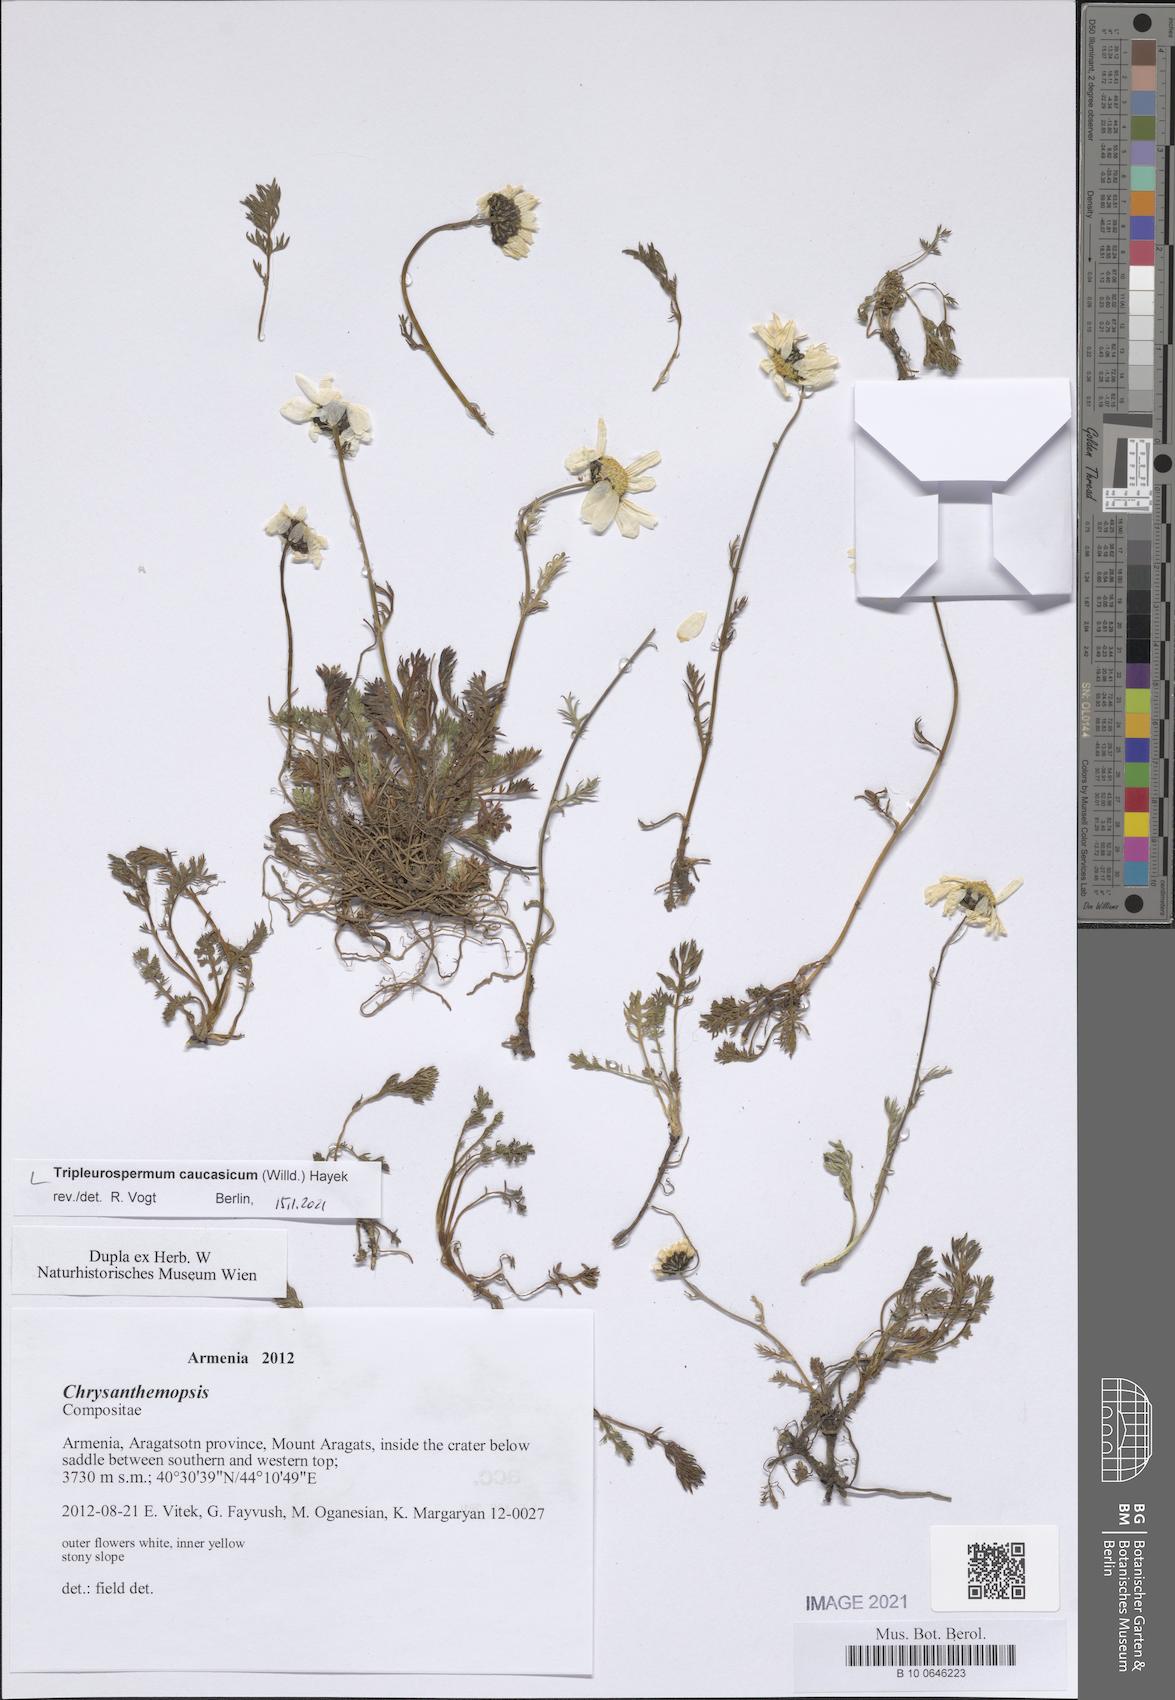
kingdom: Plantae
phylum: Tracheophyta
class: Magnoliopsida
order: Asterales
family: Asteraceae
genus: Tripleurospermum
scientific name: Tripleurospermum caucasicum
